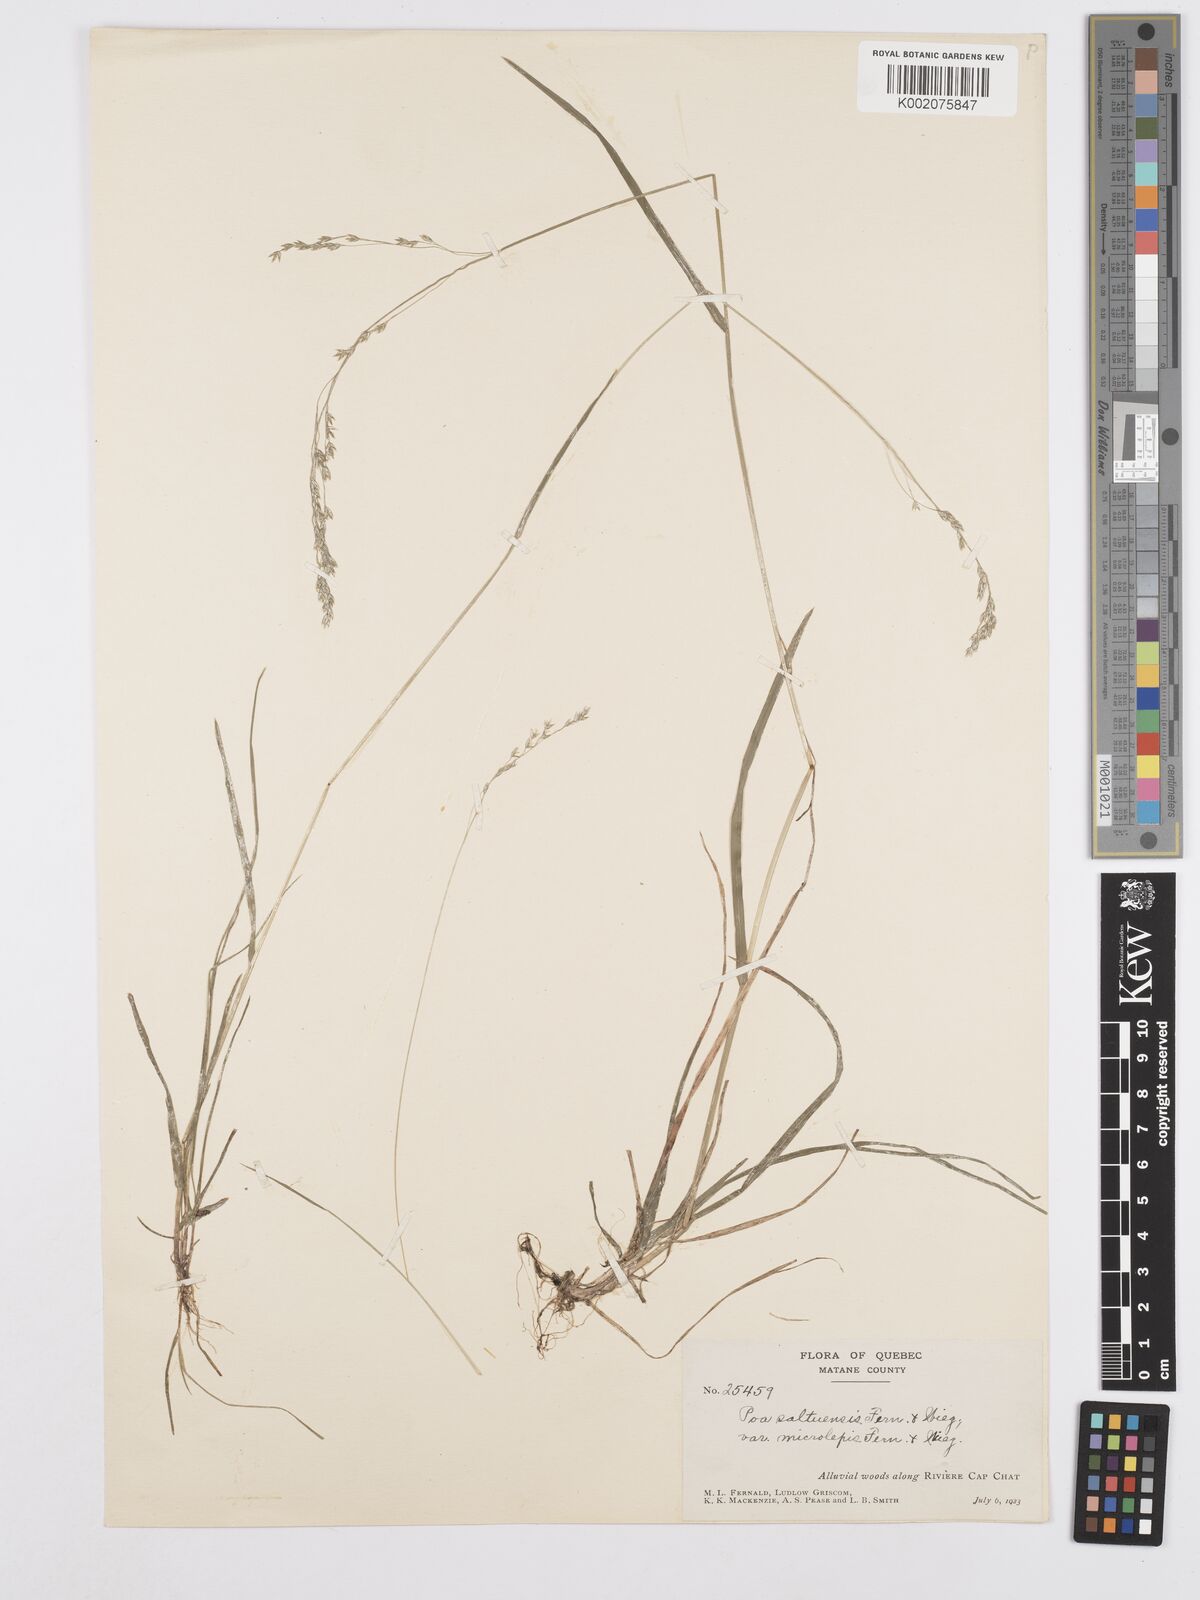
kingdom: Plantae
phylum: Tracheophyta
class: Liliopsida
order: Poales
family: Poaceae
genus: Poa
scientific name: Poa saltuensis
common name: Bushy pasture speargrass
